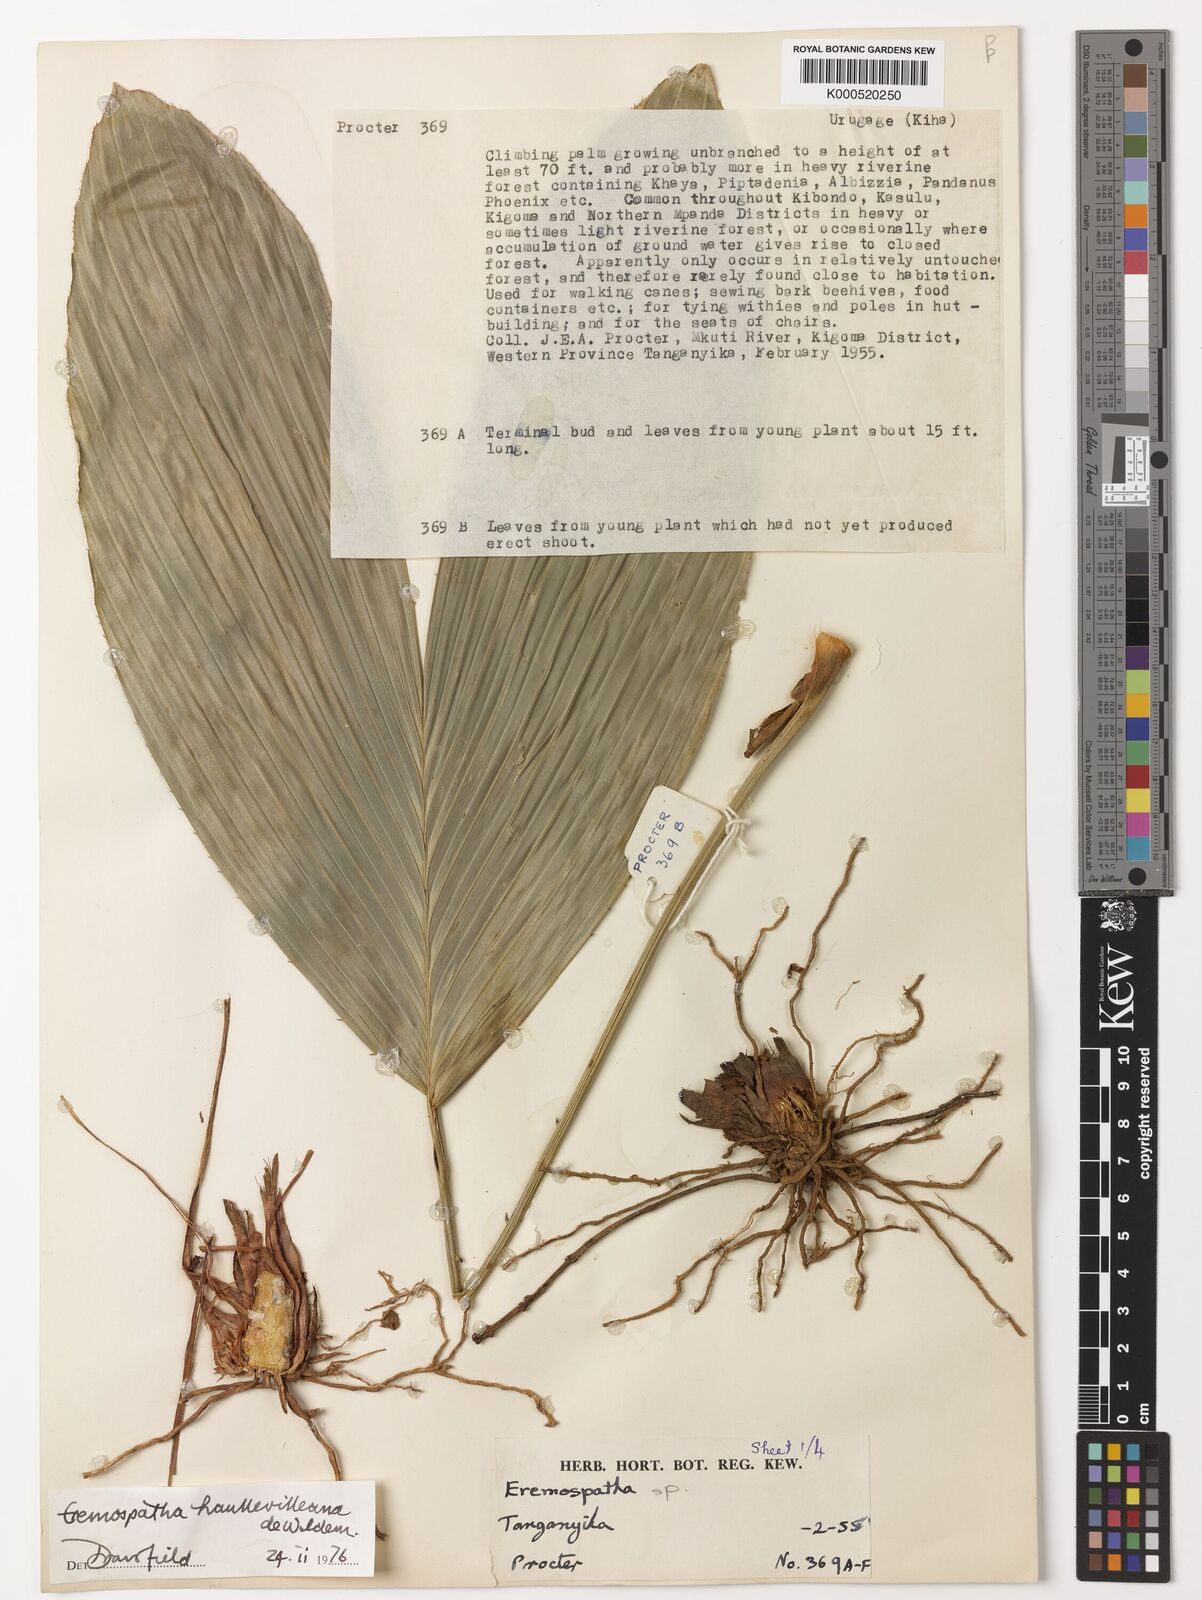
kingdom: Plantae
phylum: Tracheophyta
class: Liliopsida
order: Arecales
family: Arecaceae
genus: Eremospatha
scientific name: Eremospatha haullevilleana
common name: Rattan
